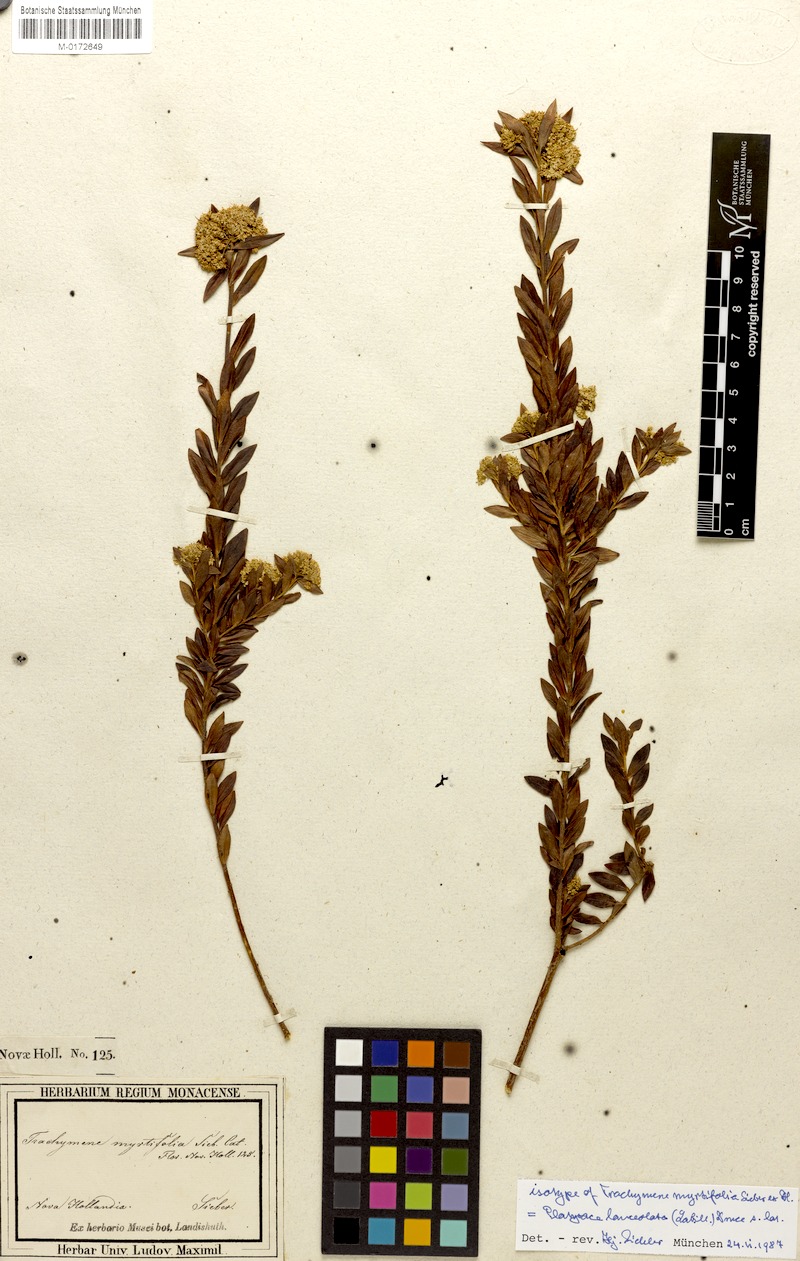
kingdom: Plantae
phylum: Tracheophyta
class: Magnoliopsida
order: Apiales
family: Apiaceae
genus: Platysace
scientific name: Platysace lanceolata
